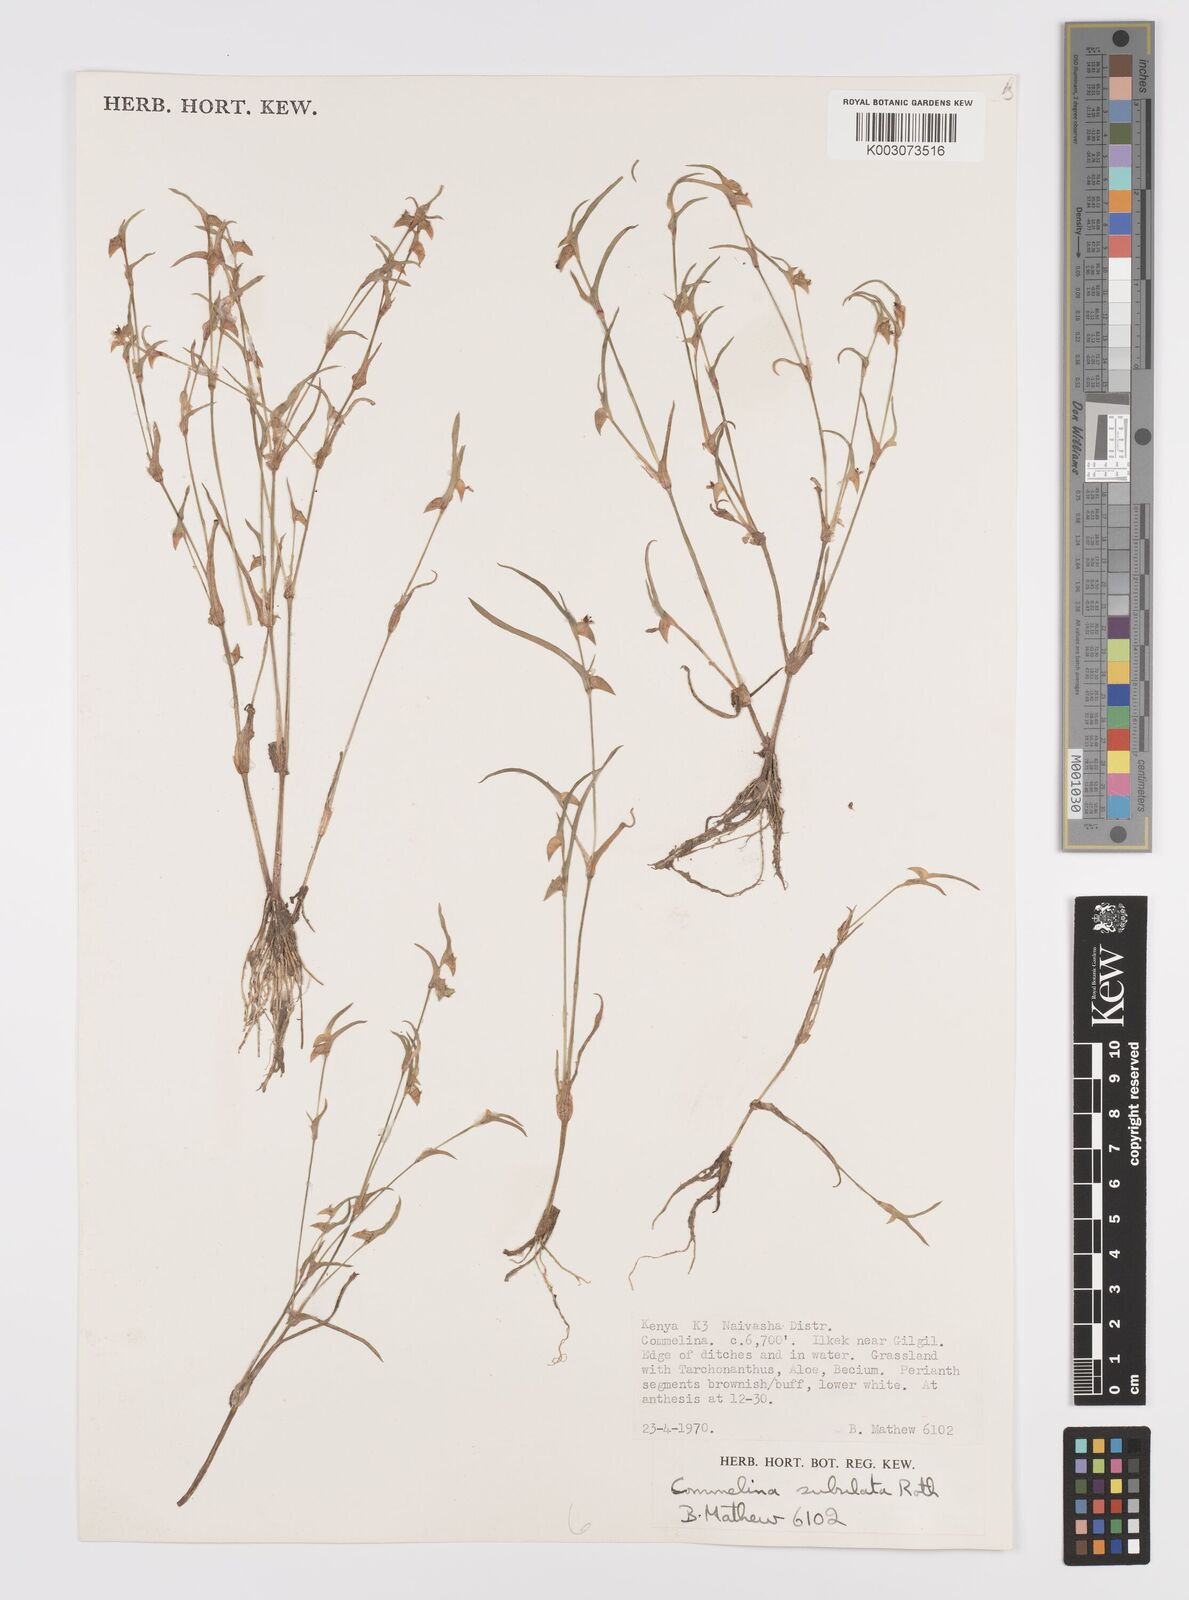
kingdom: Plantae
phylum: Tracheophyta
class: Liliopsida
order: Commelinales
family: Commelinaceae
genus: Commelina
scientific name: Commelina subulata
